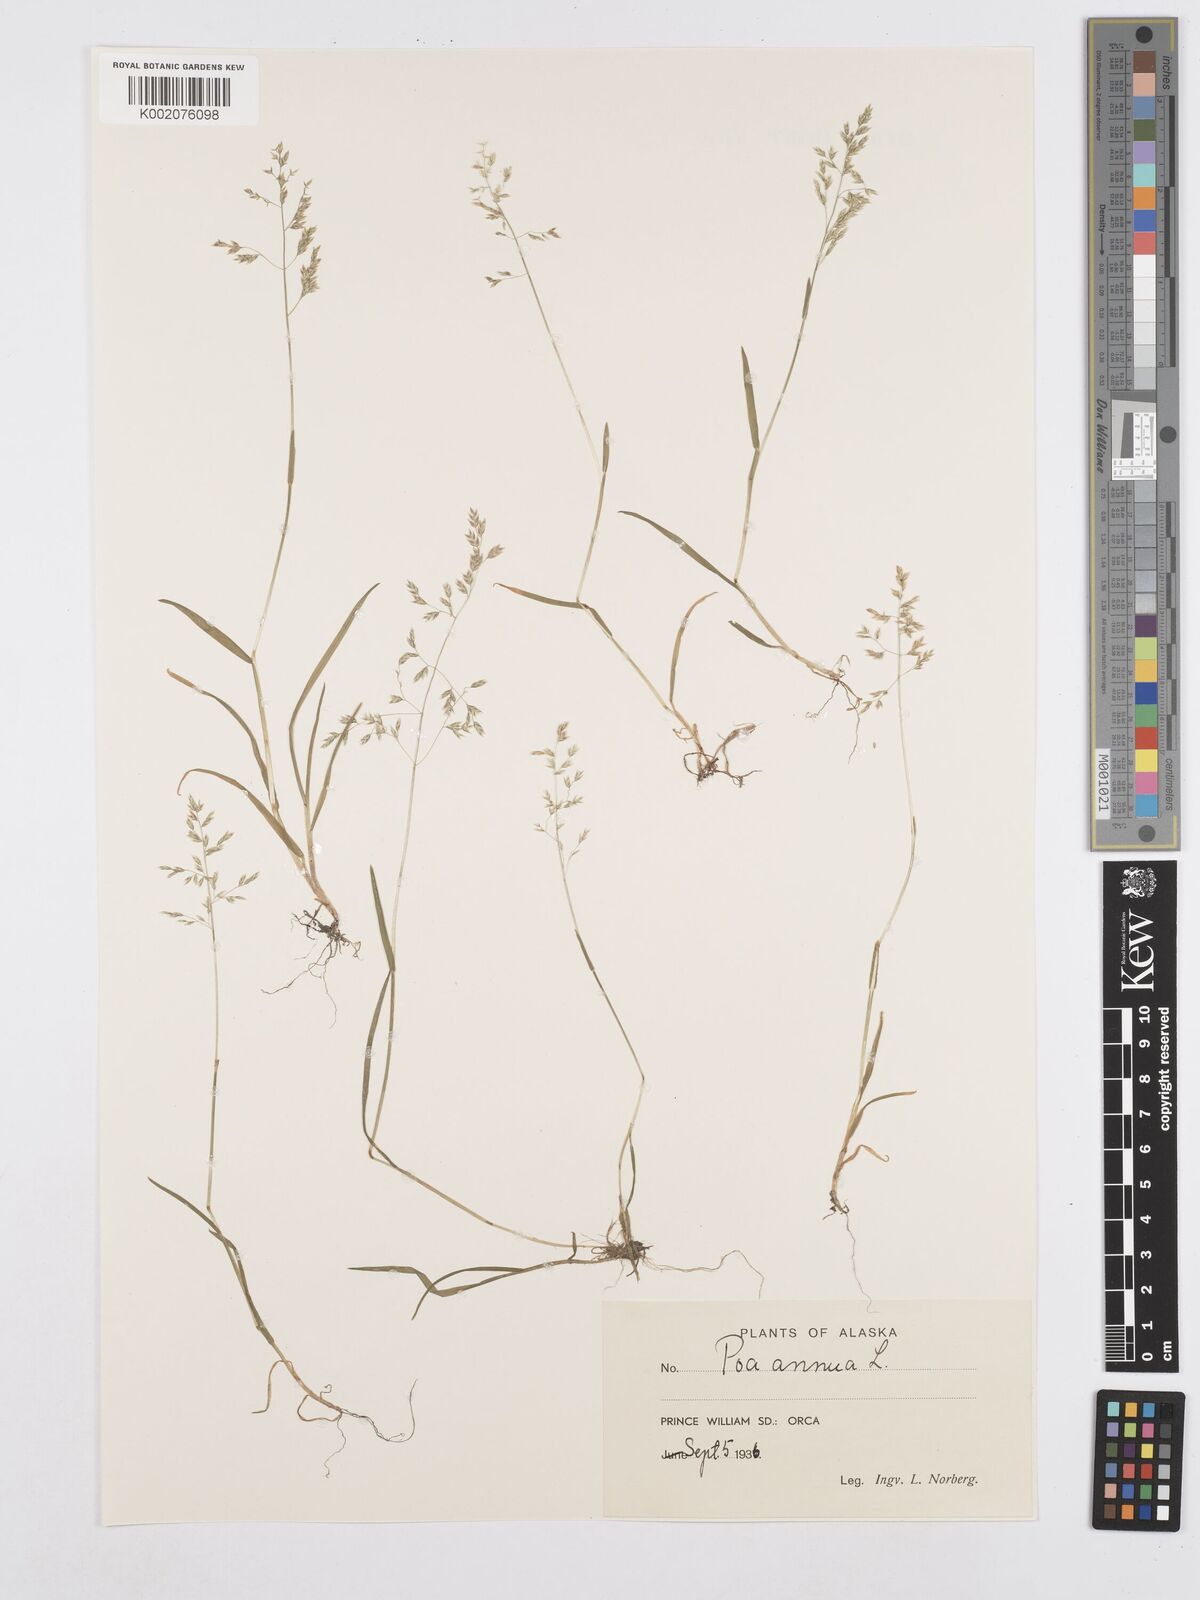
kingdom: Plantae
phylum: Tracheophyta
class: Liliopsida
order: Poales
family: Poaceae
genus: Poa
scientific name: Poa annua
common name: Annual bluegrass
